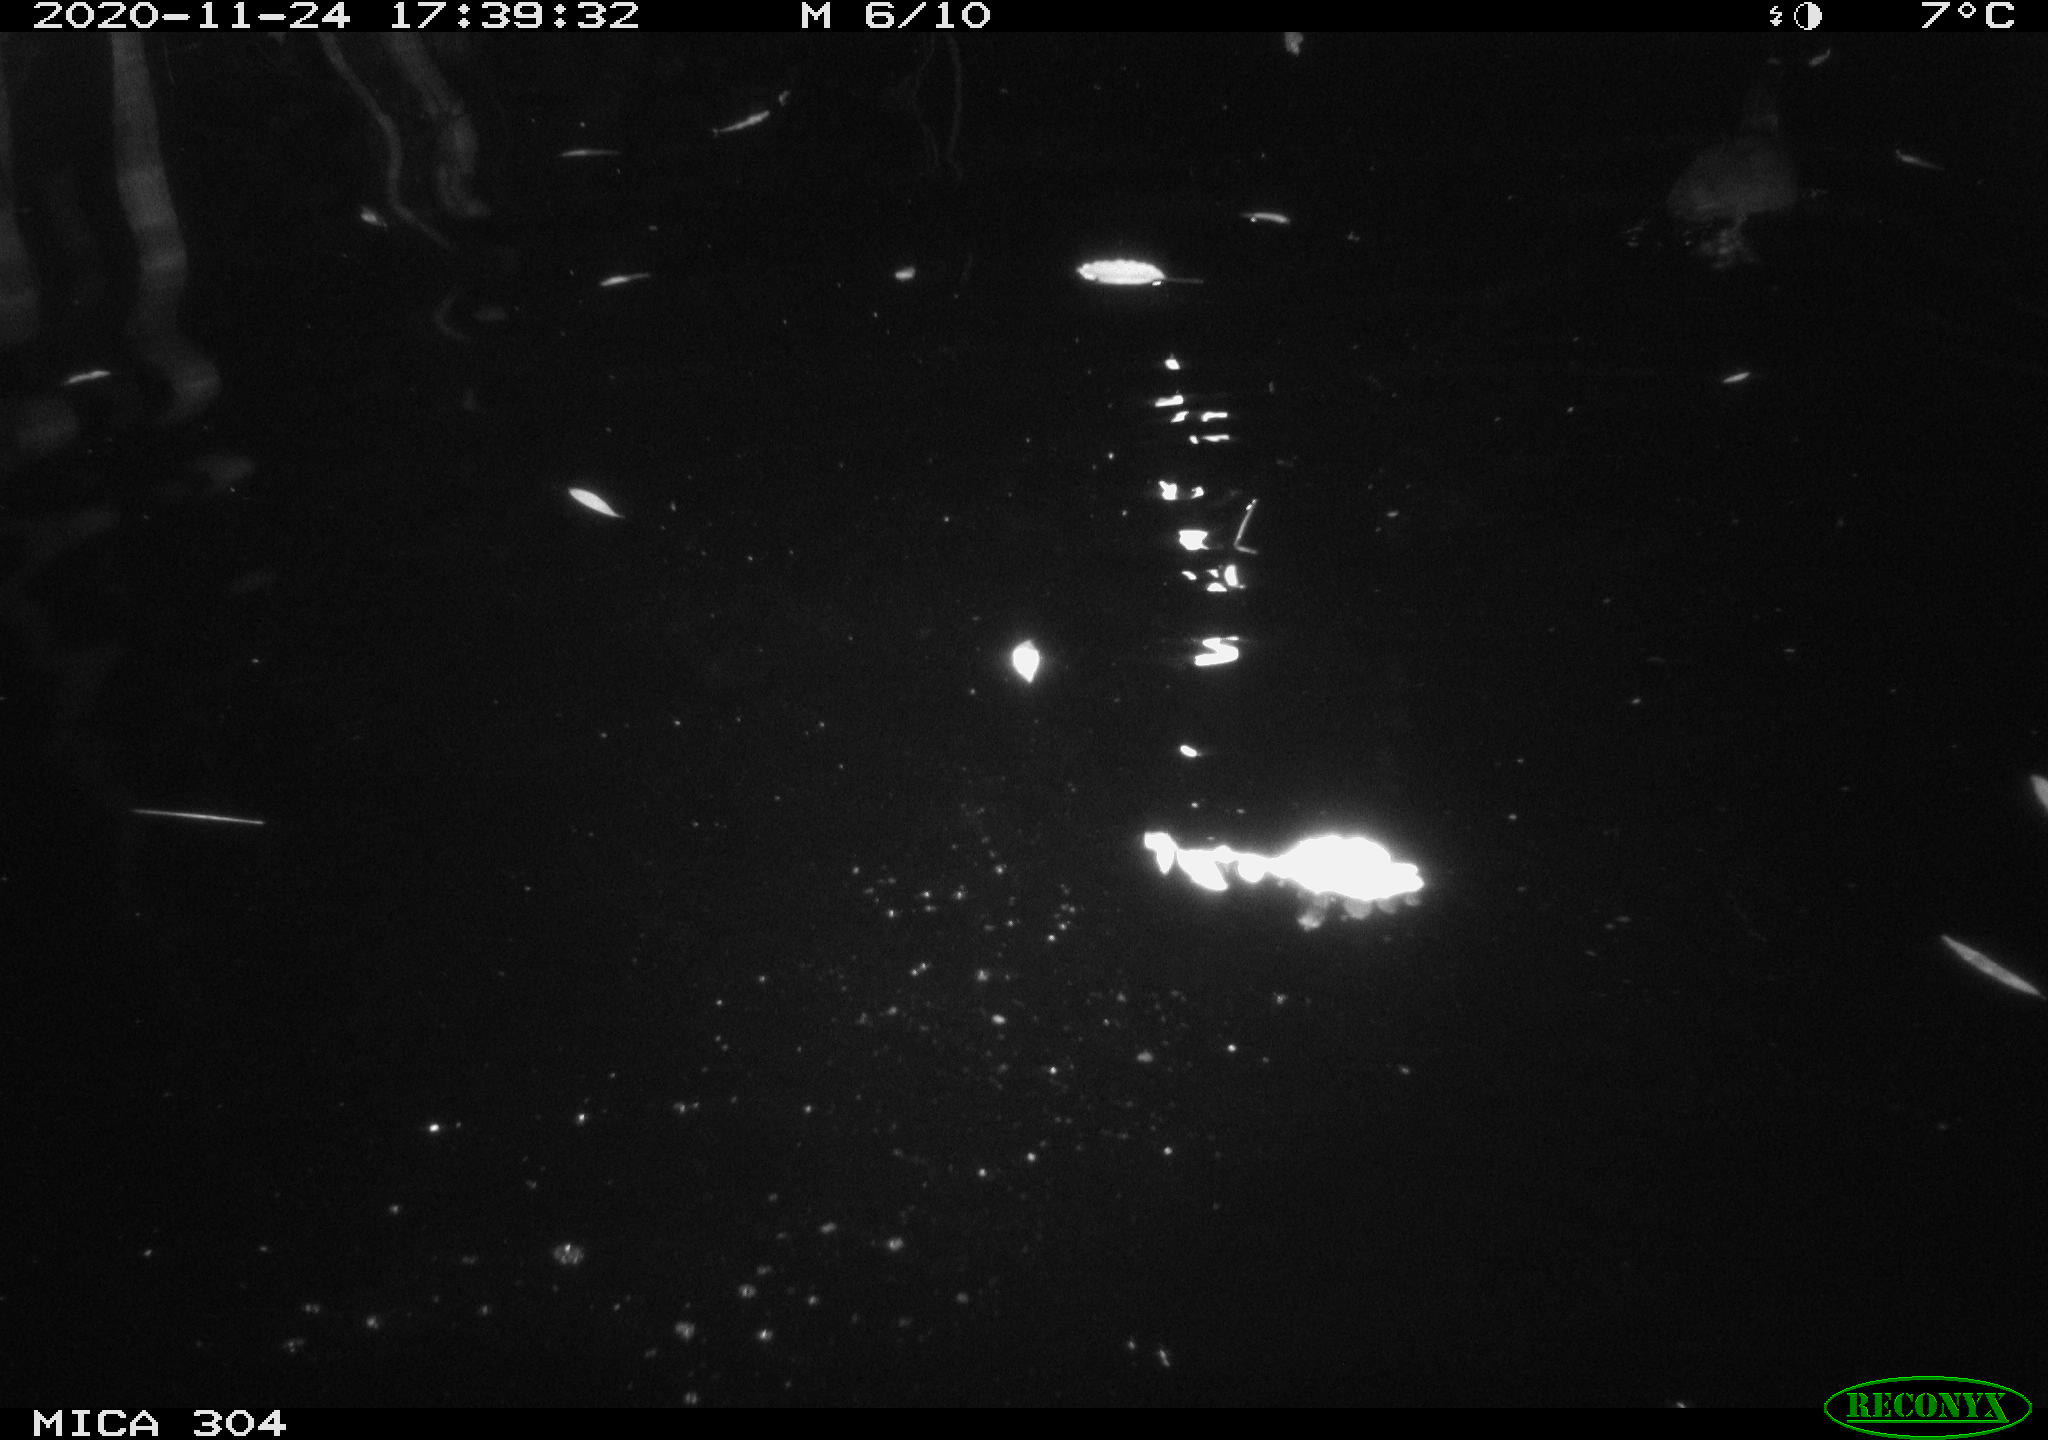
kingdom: Animalia
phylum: Chordata
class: Aves
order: Gruiformes
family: Rallidae
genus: Fulica
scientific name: Fulica atra
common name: Eurasian coot
